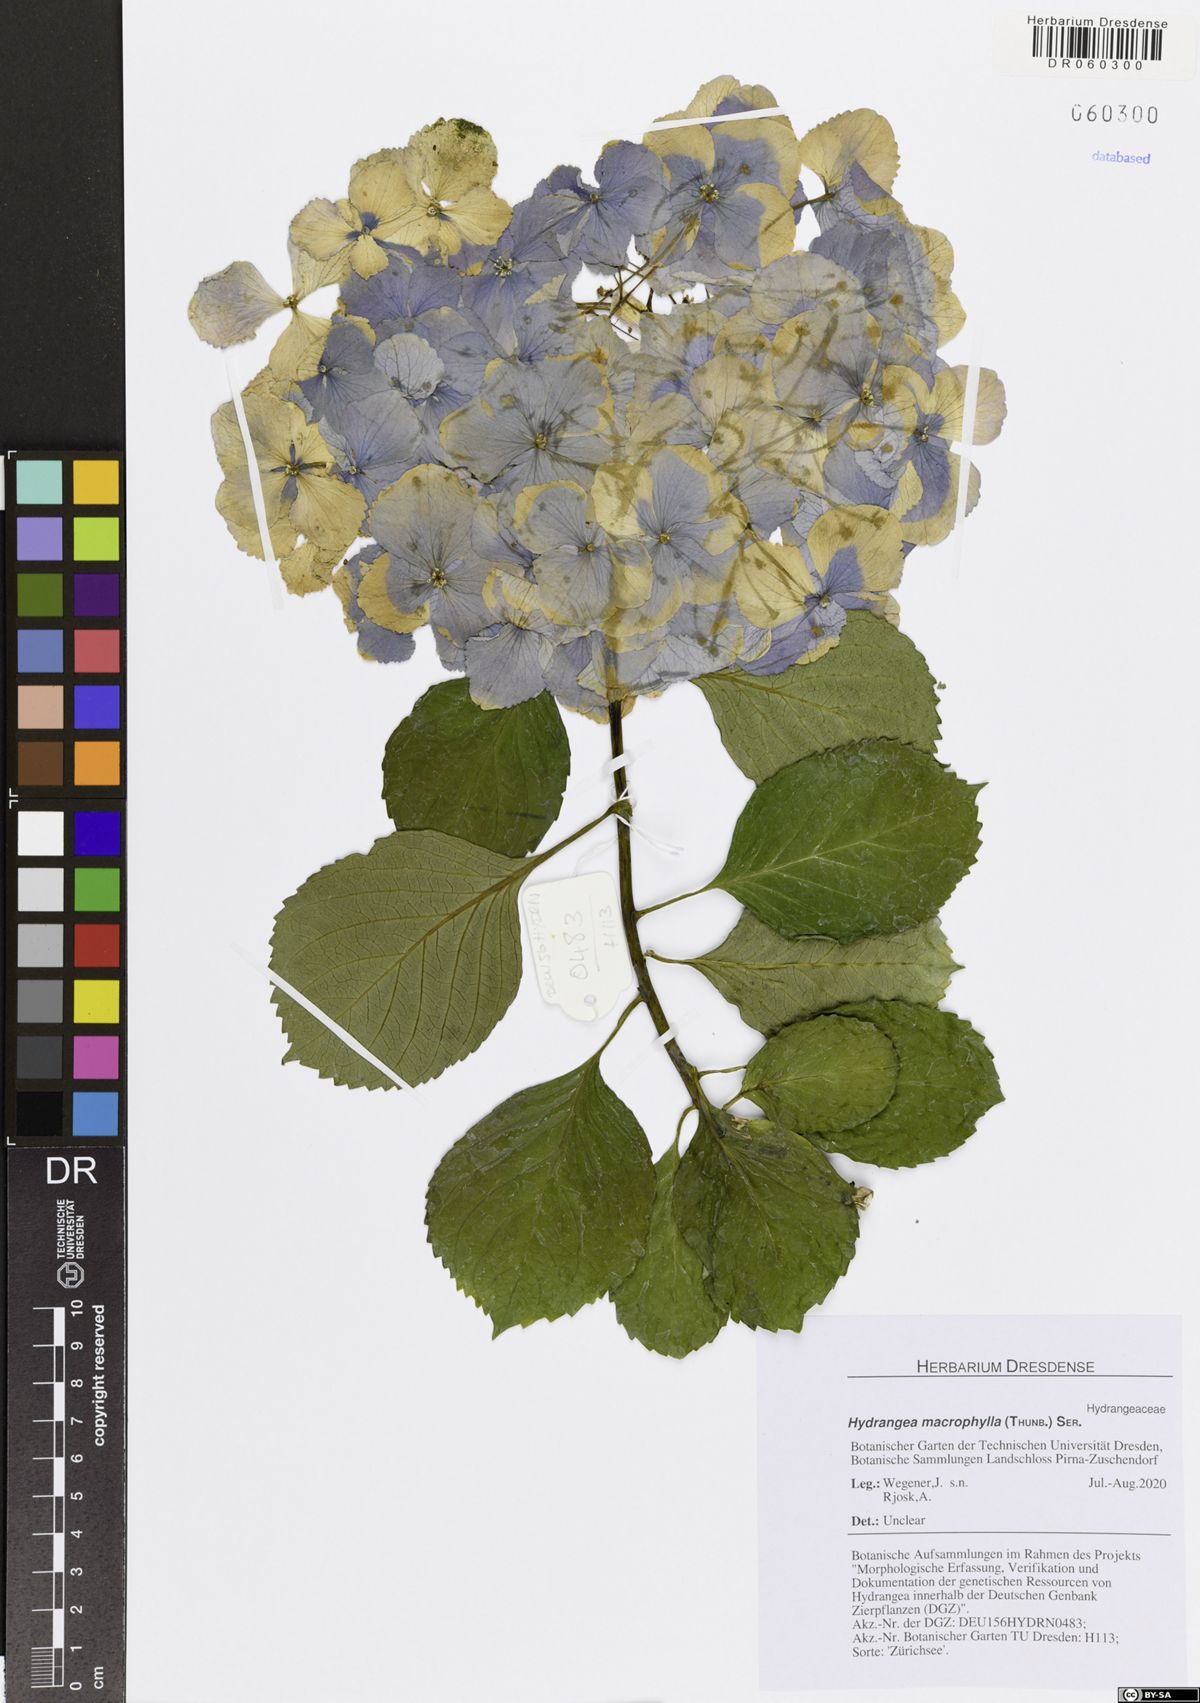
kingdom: Plantae
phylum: Tracheophyta
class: Magnoliopsida
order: Cornales
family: Hydrangeaceae
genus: Hydrangea
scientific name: Hydrangea macrophylla
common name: Hydrangea
